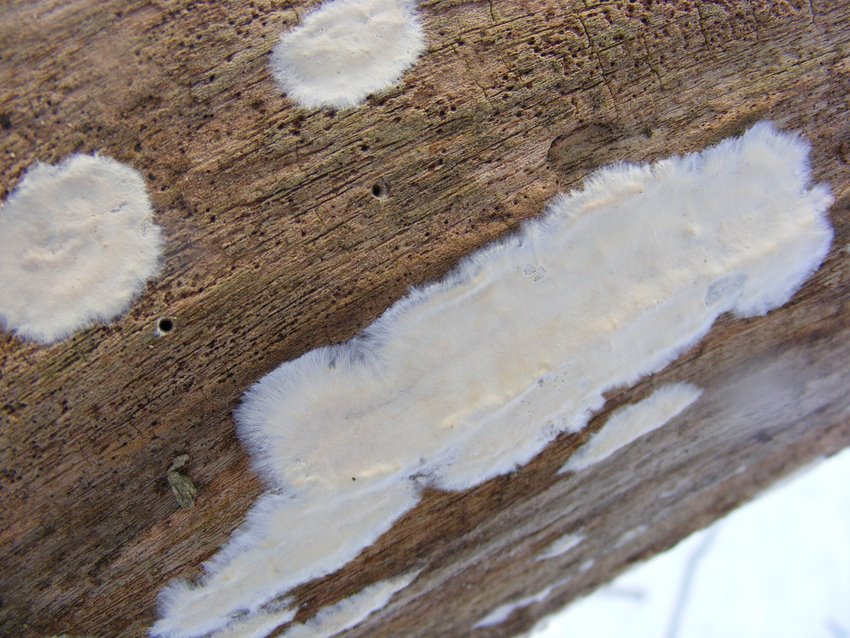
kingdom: Fungi
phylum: Basidiomycota
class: Agaricomycetes
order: Polyporales
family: Irpicaceae
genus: Byssomerulius
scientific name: Byssomerulius corium
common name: læder-åresvamp
